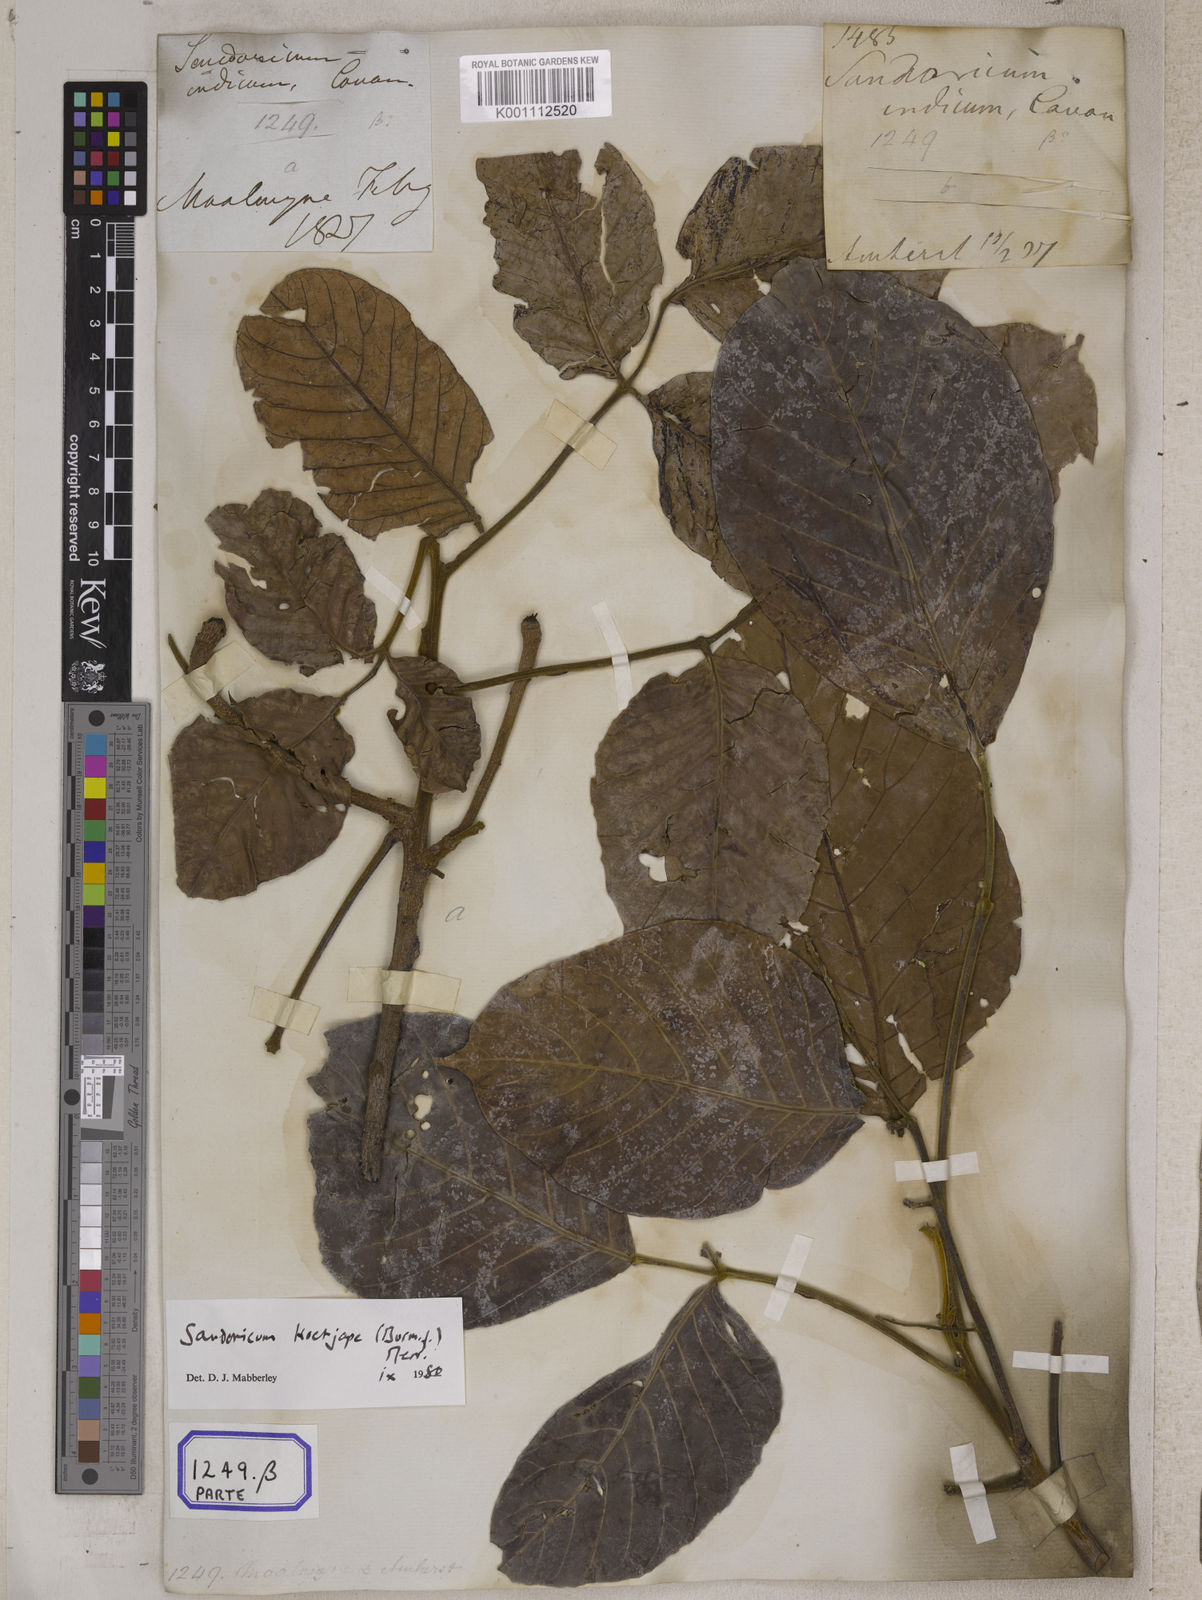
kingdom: Plantae
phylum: Tracheophyta
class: Magnoliopsida
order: Sapindales
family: Meliaceae
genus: Sandoricum
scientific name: Sandoricum
